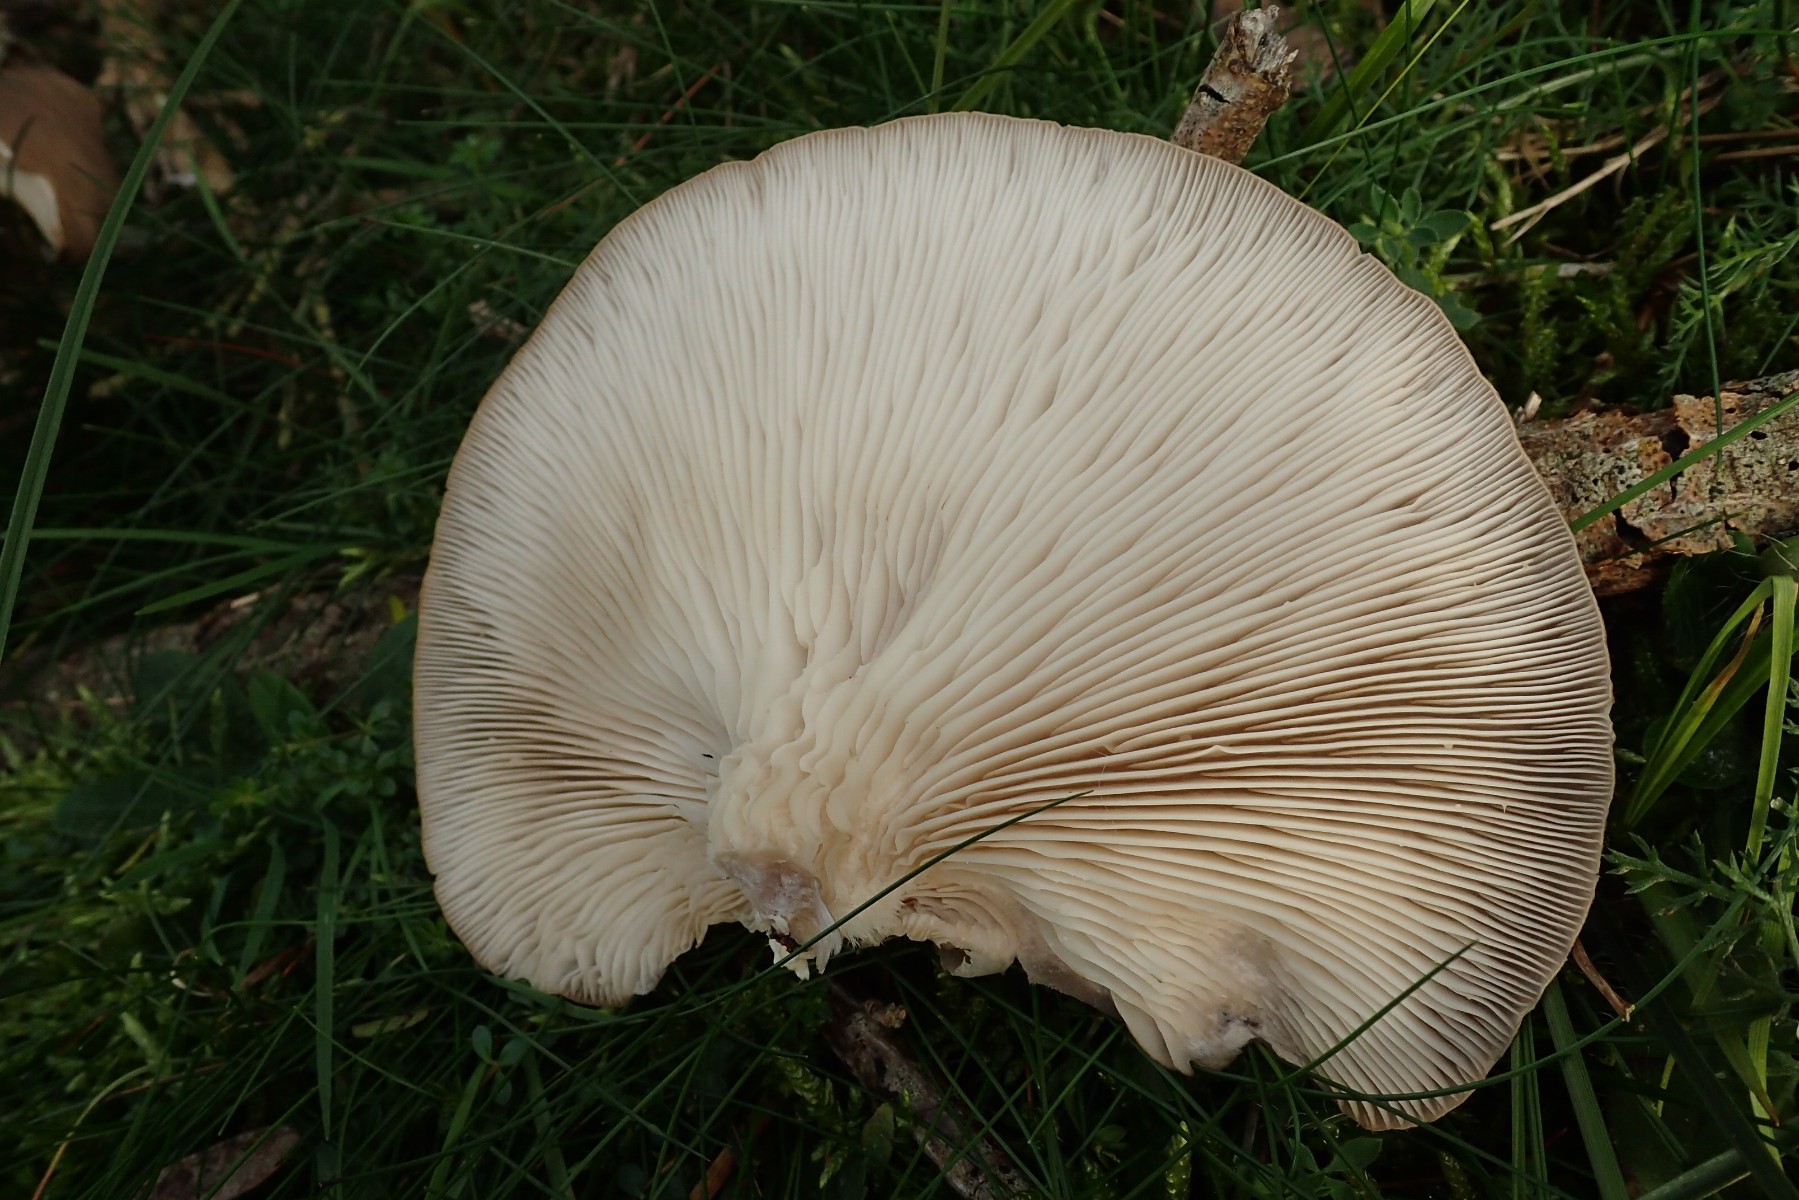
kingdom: Fungi
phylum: Basidiomycota
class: Agaricomycetes
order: Agaricales
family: Pleurotaceae
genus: Pleurotus
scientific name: Pleurotus ostreatus
